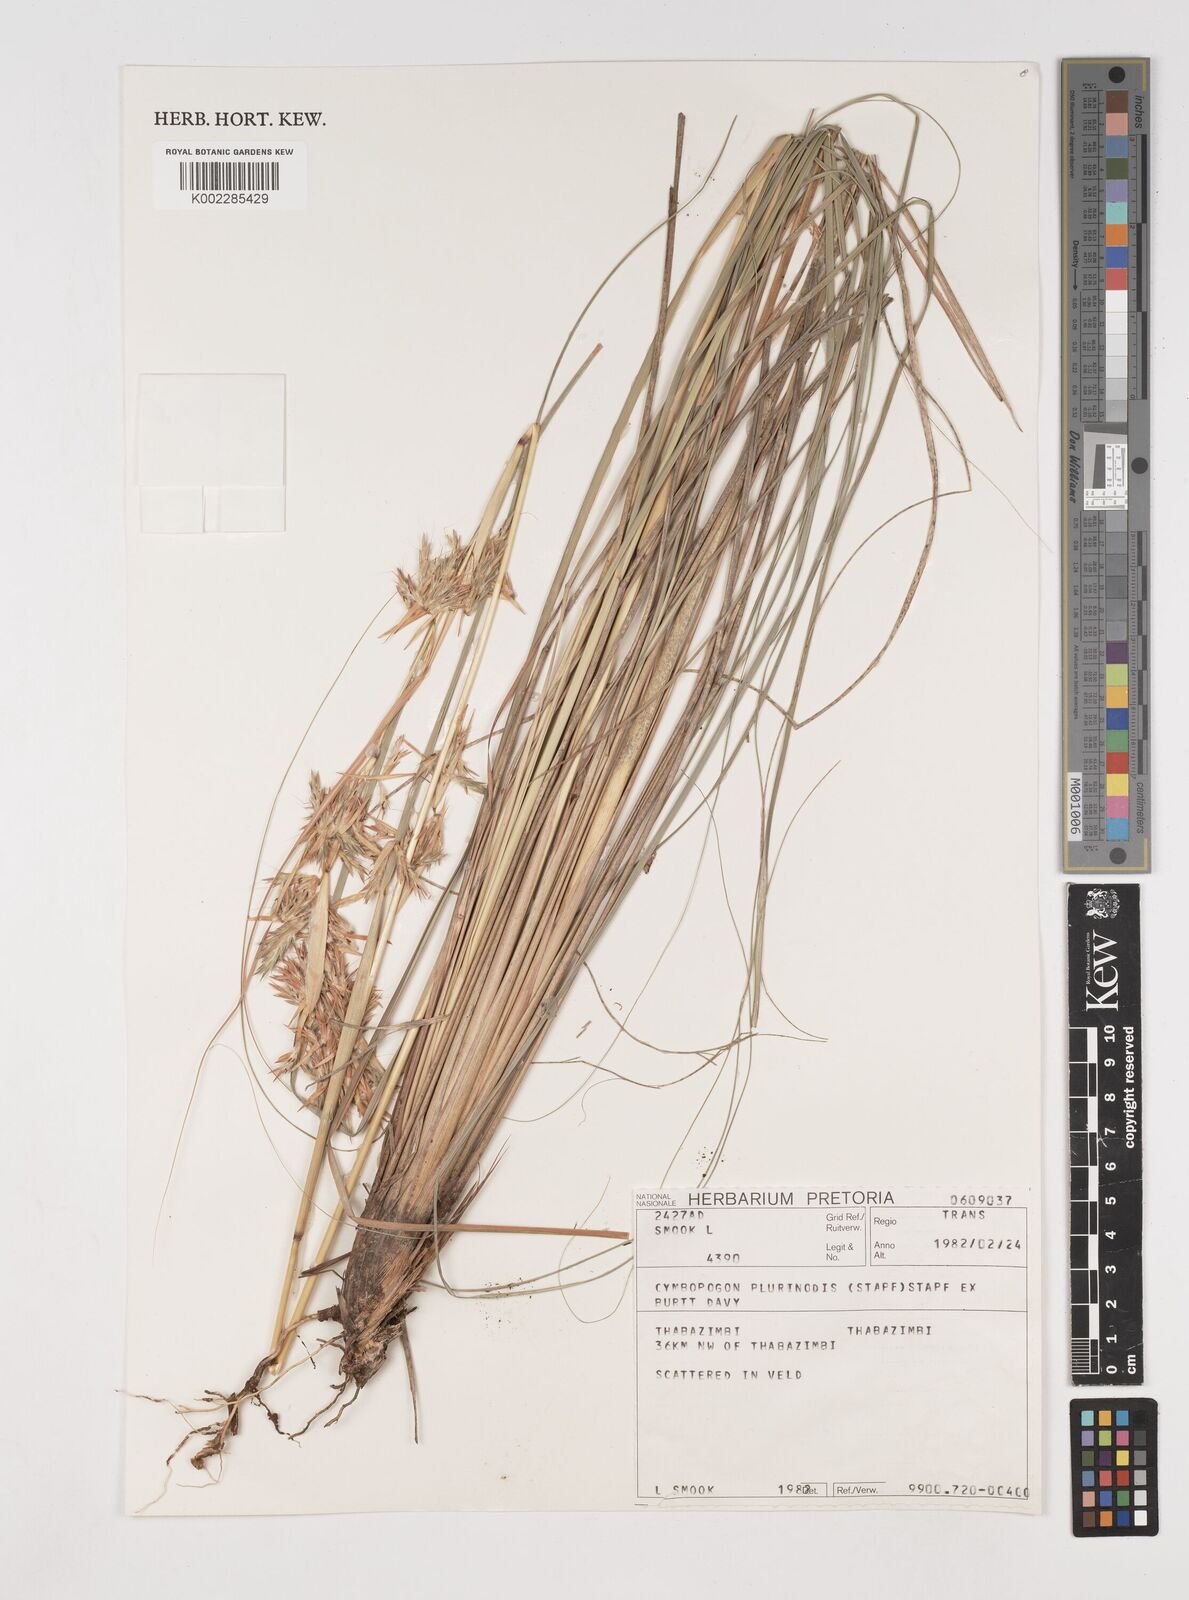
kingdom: Plantae
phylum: Tracheophyta
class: Liliopsida
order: Poales
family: Poaceae
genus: Cymbopogon
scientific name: Cymbopogon
